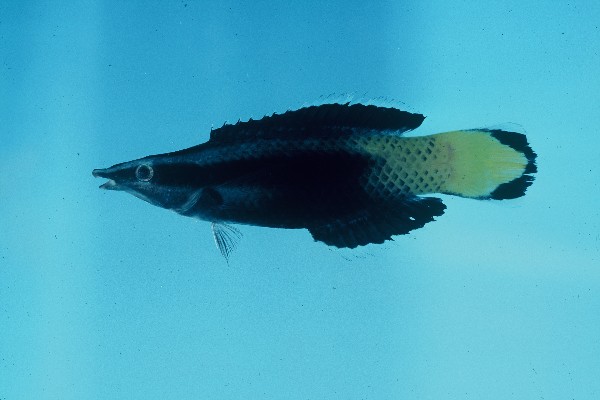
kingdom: Animalia
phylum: Chordata
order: Perciformes
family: Labridae
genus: Labroides
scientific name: Labroides bicolor
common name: Bicolor cleaner wrasse
